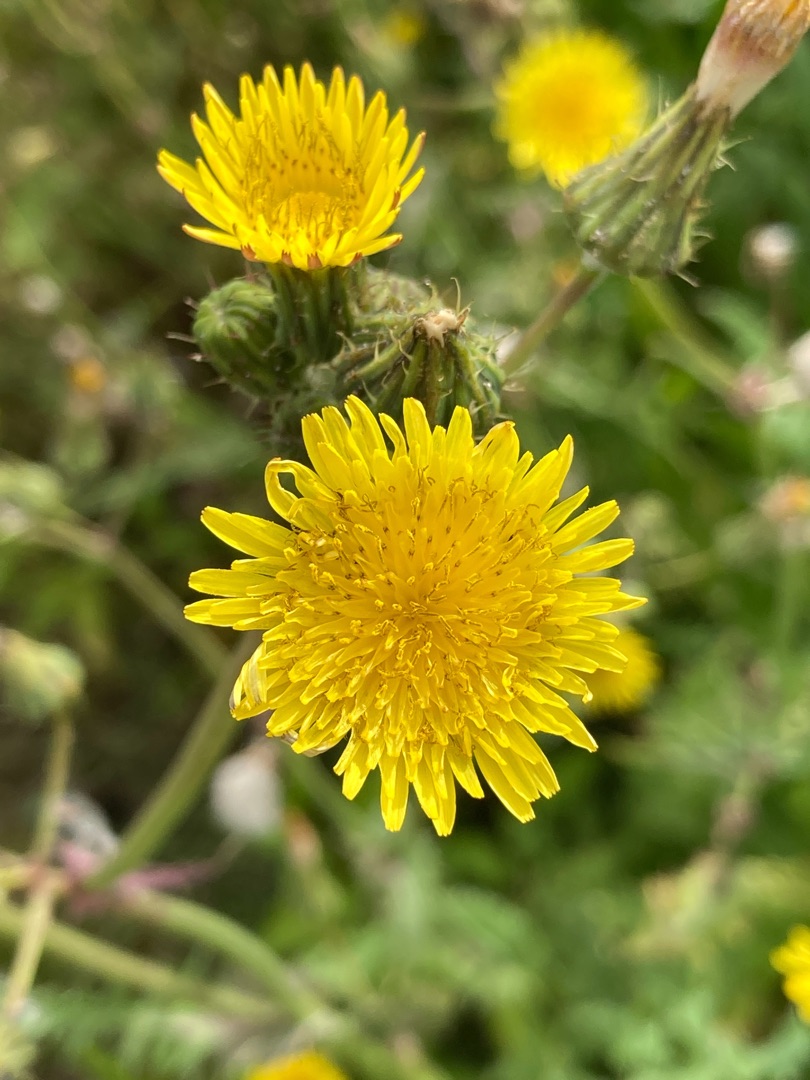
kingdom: Plantae
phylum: Tracheophyta
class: Magnoliopsida
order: Asterales
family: Asteraceae
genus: Sonchus
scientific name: Sonchus oleraceus
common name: Almindelig svinemælk
